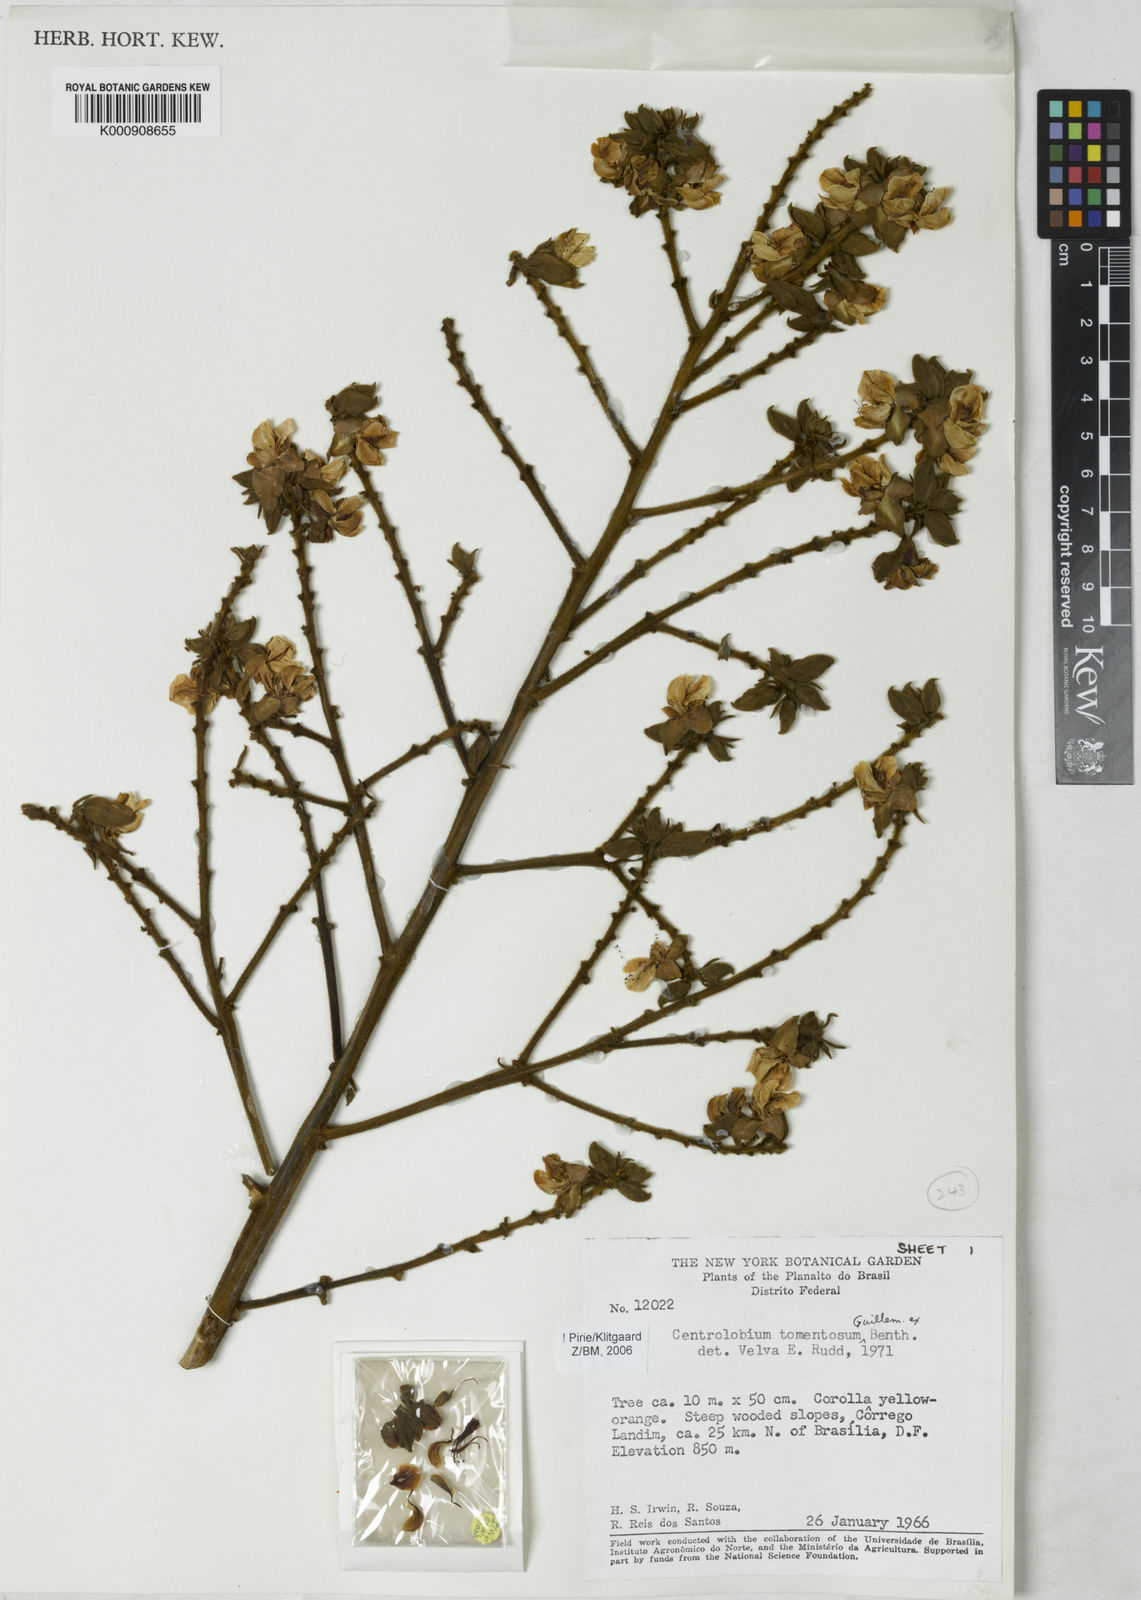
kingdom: Plantae
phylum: Tracheophyta
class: Magnoliopsida
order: Fabales
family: Fabaceae
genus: Centrolobium
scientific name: Centrolobium tomentosum
